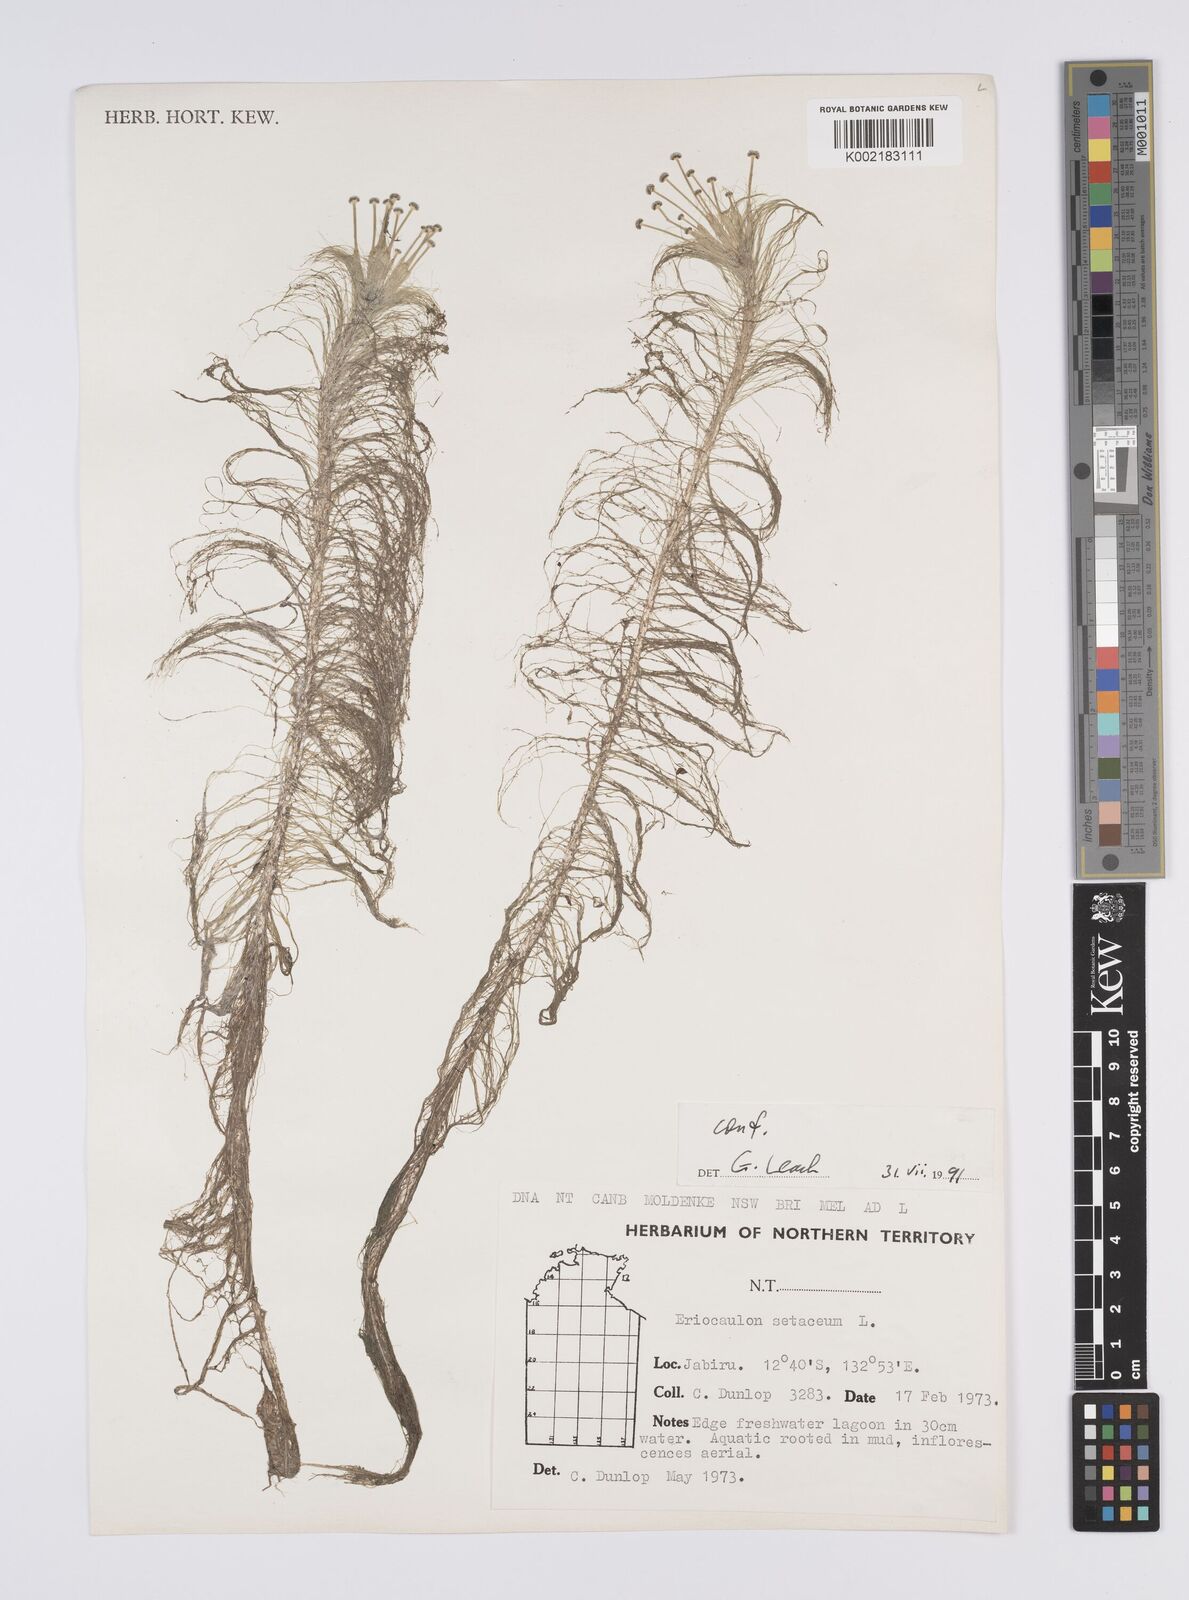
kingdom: Plantae
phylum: Tracheophyta
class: Liliopsida
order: Poales
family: Eriocaulaceae
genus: Eriocaulon
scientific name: Eriocaulon setaceum
